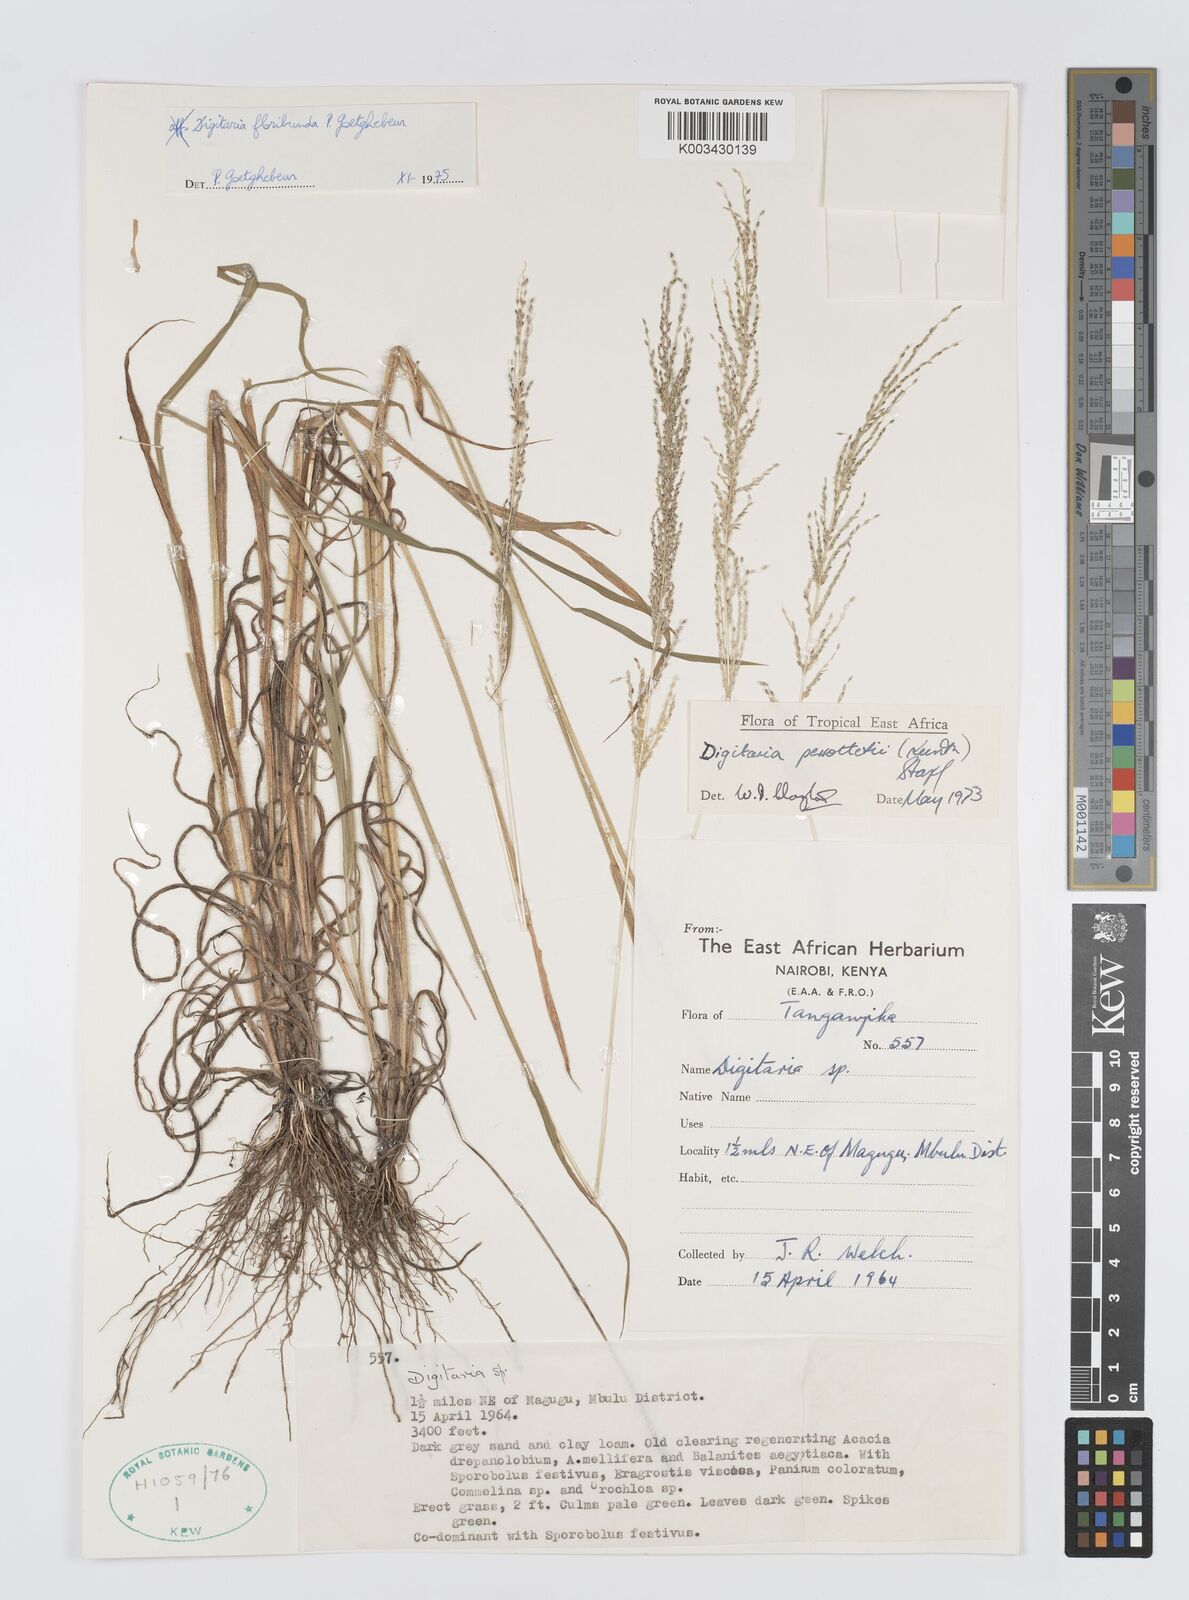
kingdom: Plantae
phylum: Tracheophyta
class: Liliopsida
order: Poales
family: Poaceae
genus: Digitaria
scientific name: Digitaria perrottetii
